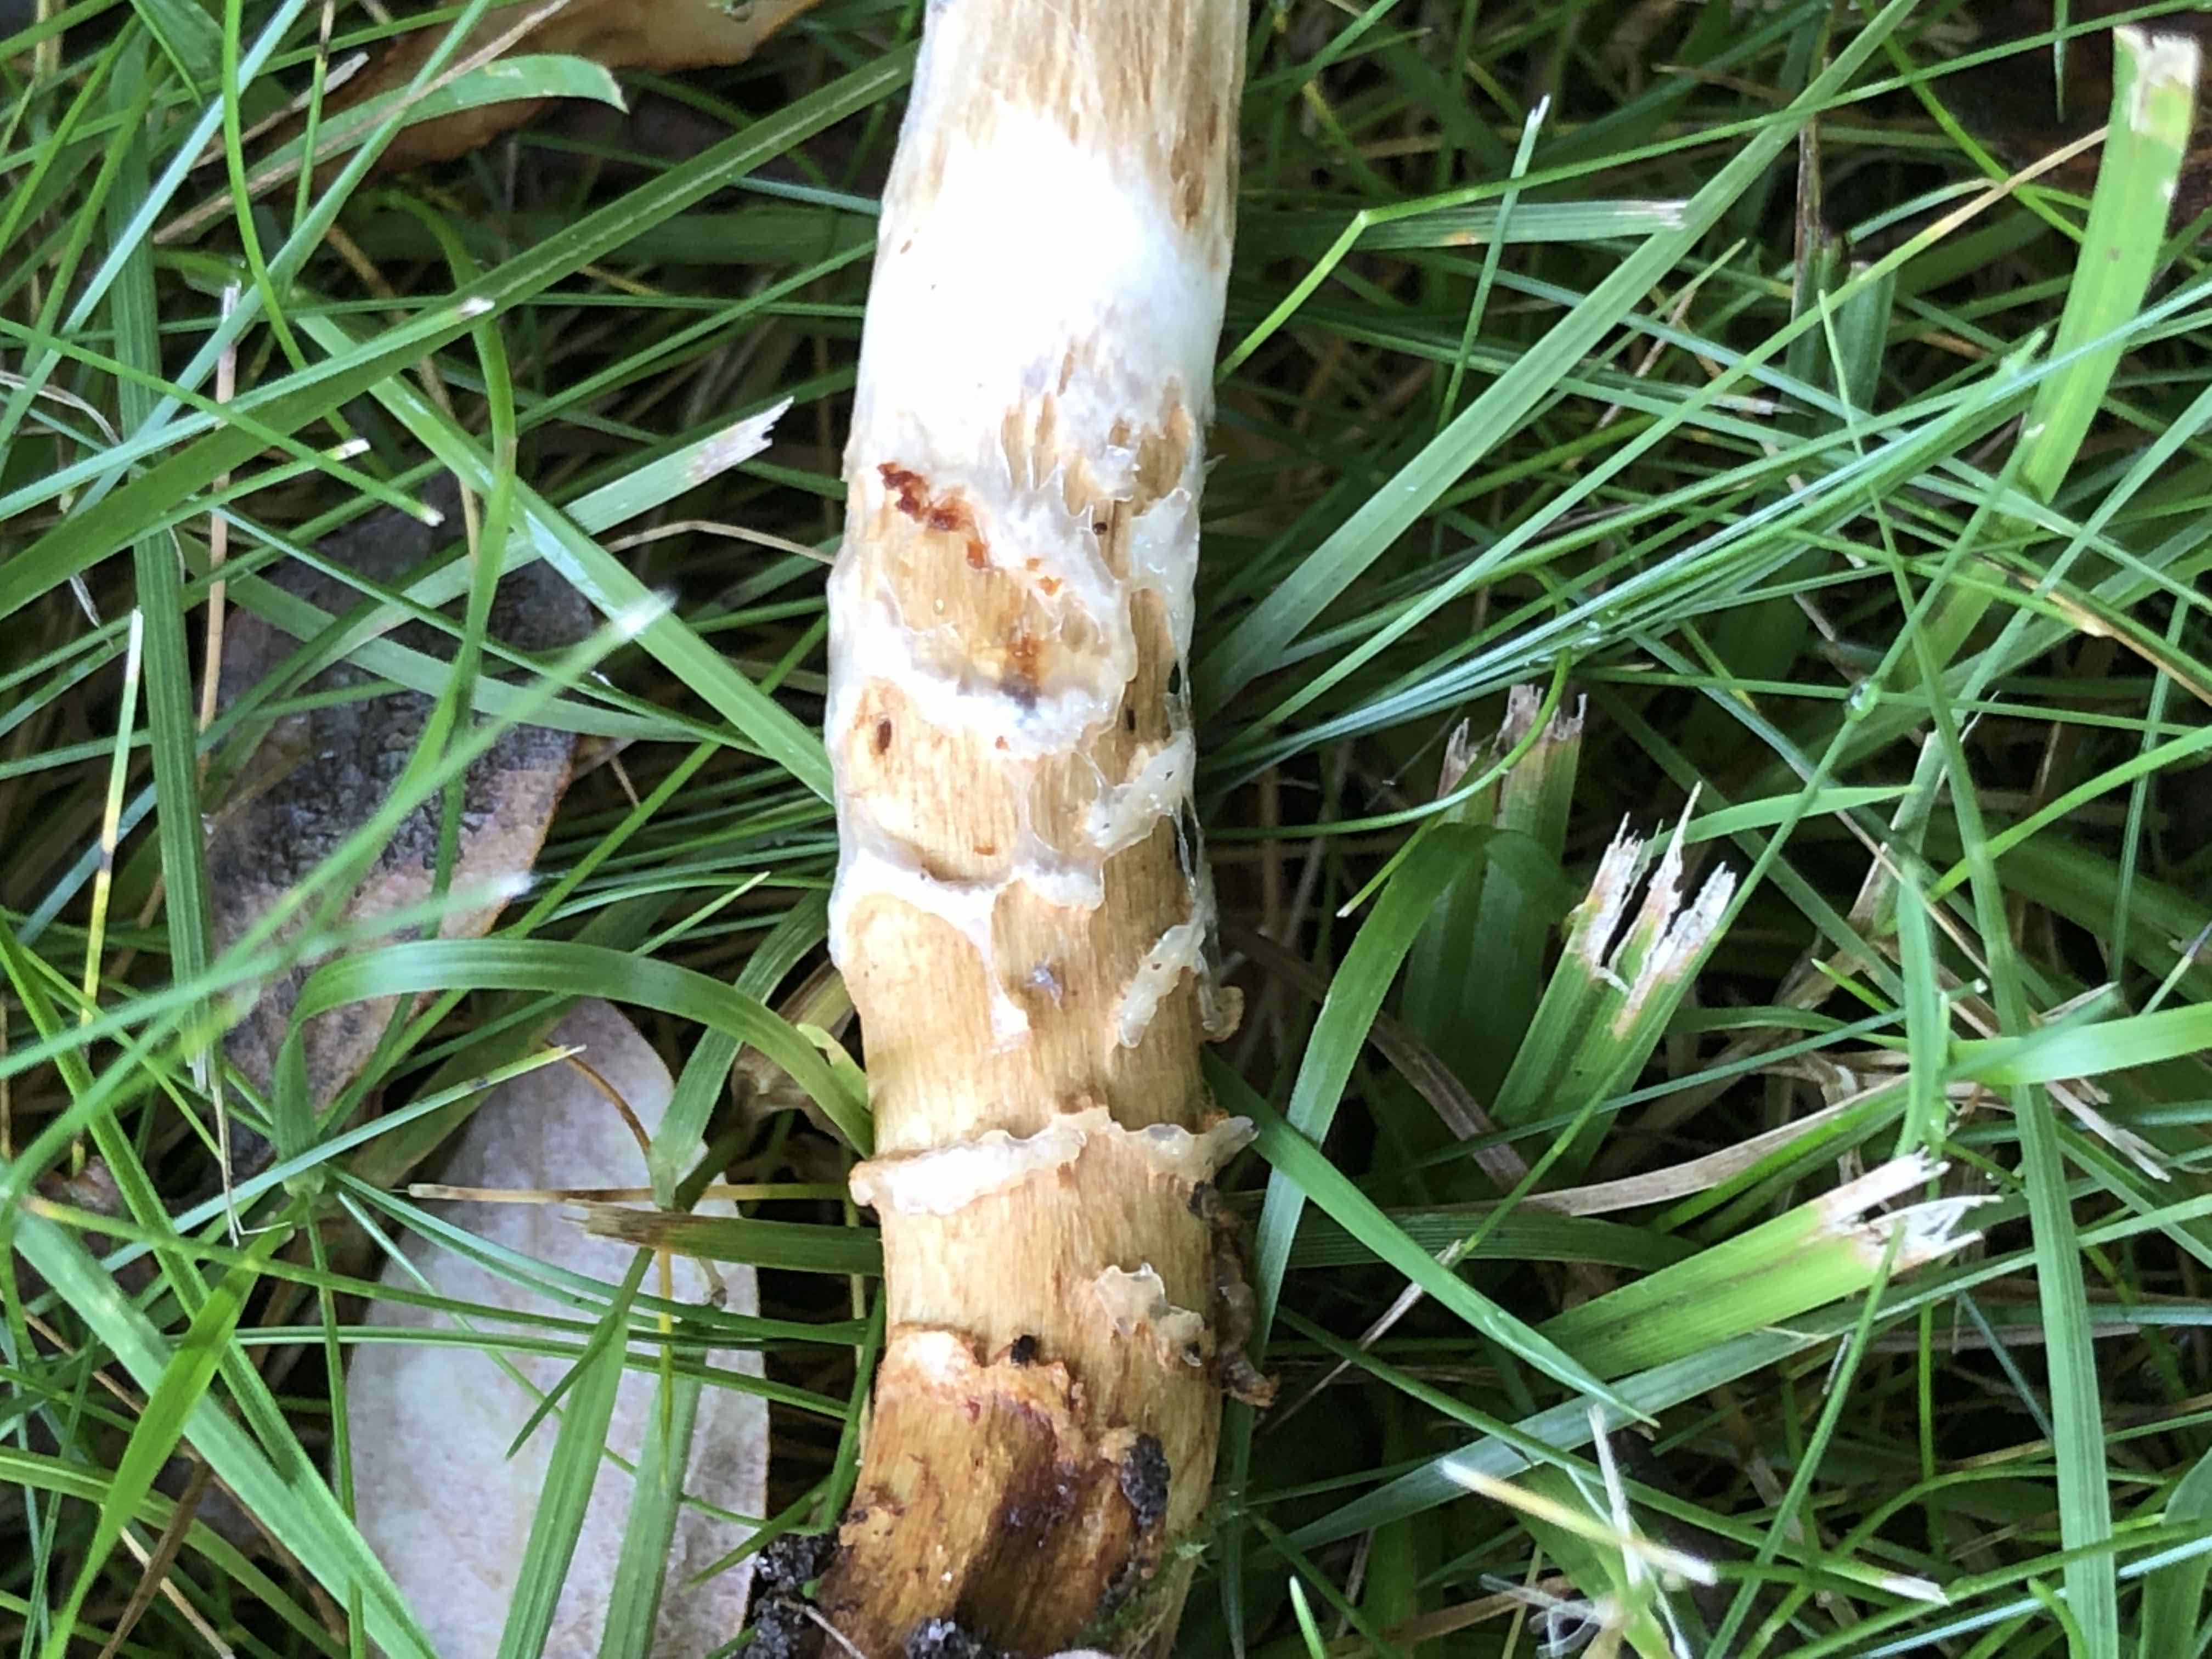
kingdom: Fungi
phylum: Basidiomycota
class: Agaricomycetes
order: Agaricales
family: Cortinariaceae
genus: Cortinarius
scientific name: Cortinarius trivialis
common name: brunslimet slørhat
